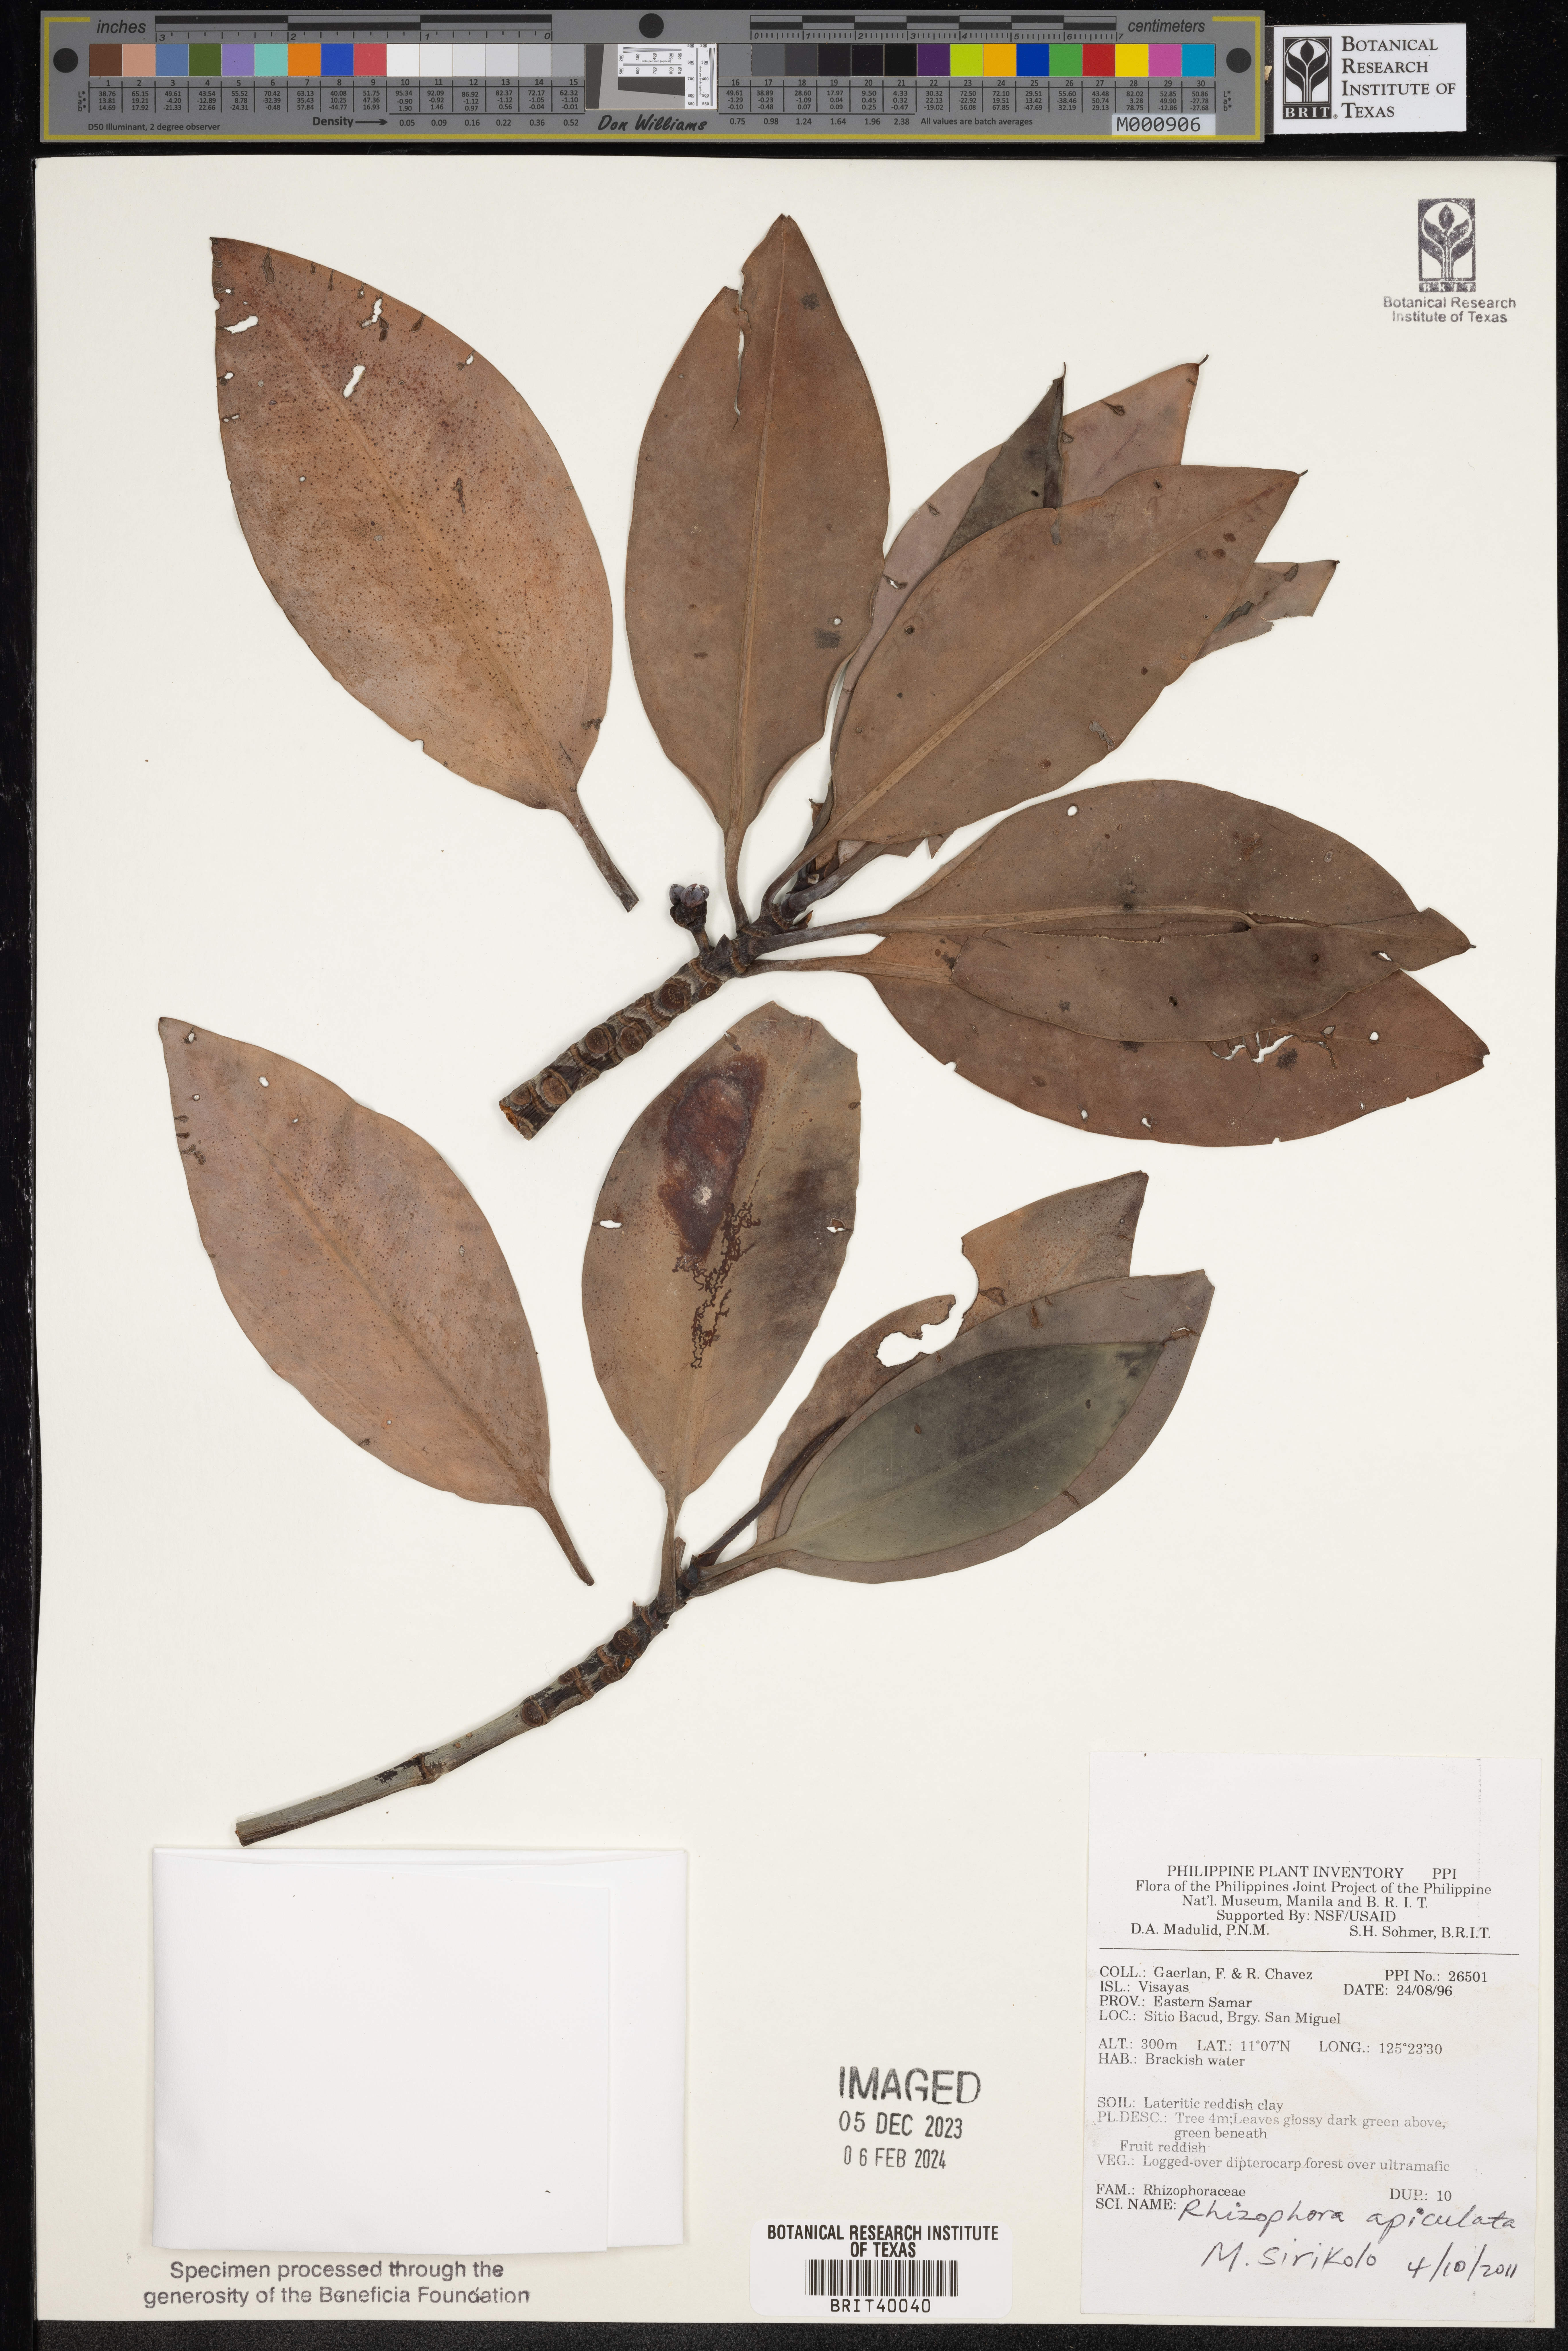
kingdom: Plantae
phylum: Tracheophyta
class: Magnoliopsida
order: Malpighiales
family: Rhizophoraceae
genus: Rhizophora
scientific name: Rhizophora apiculata
